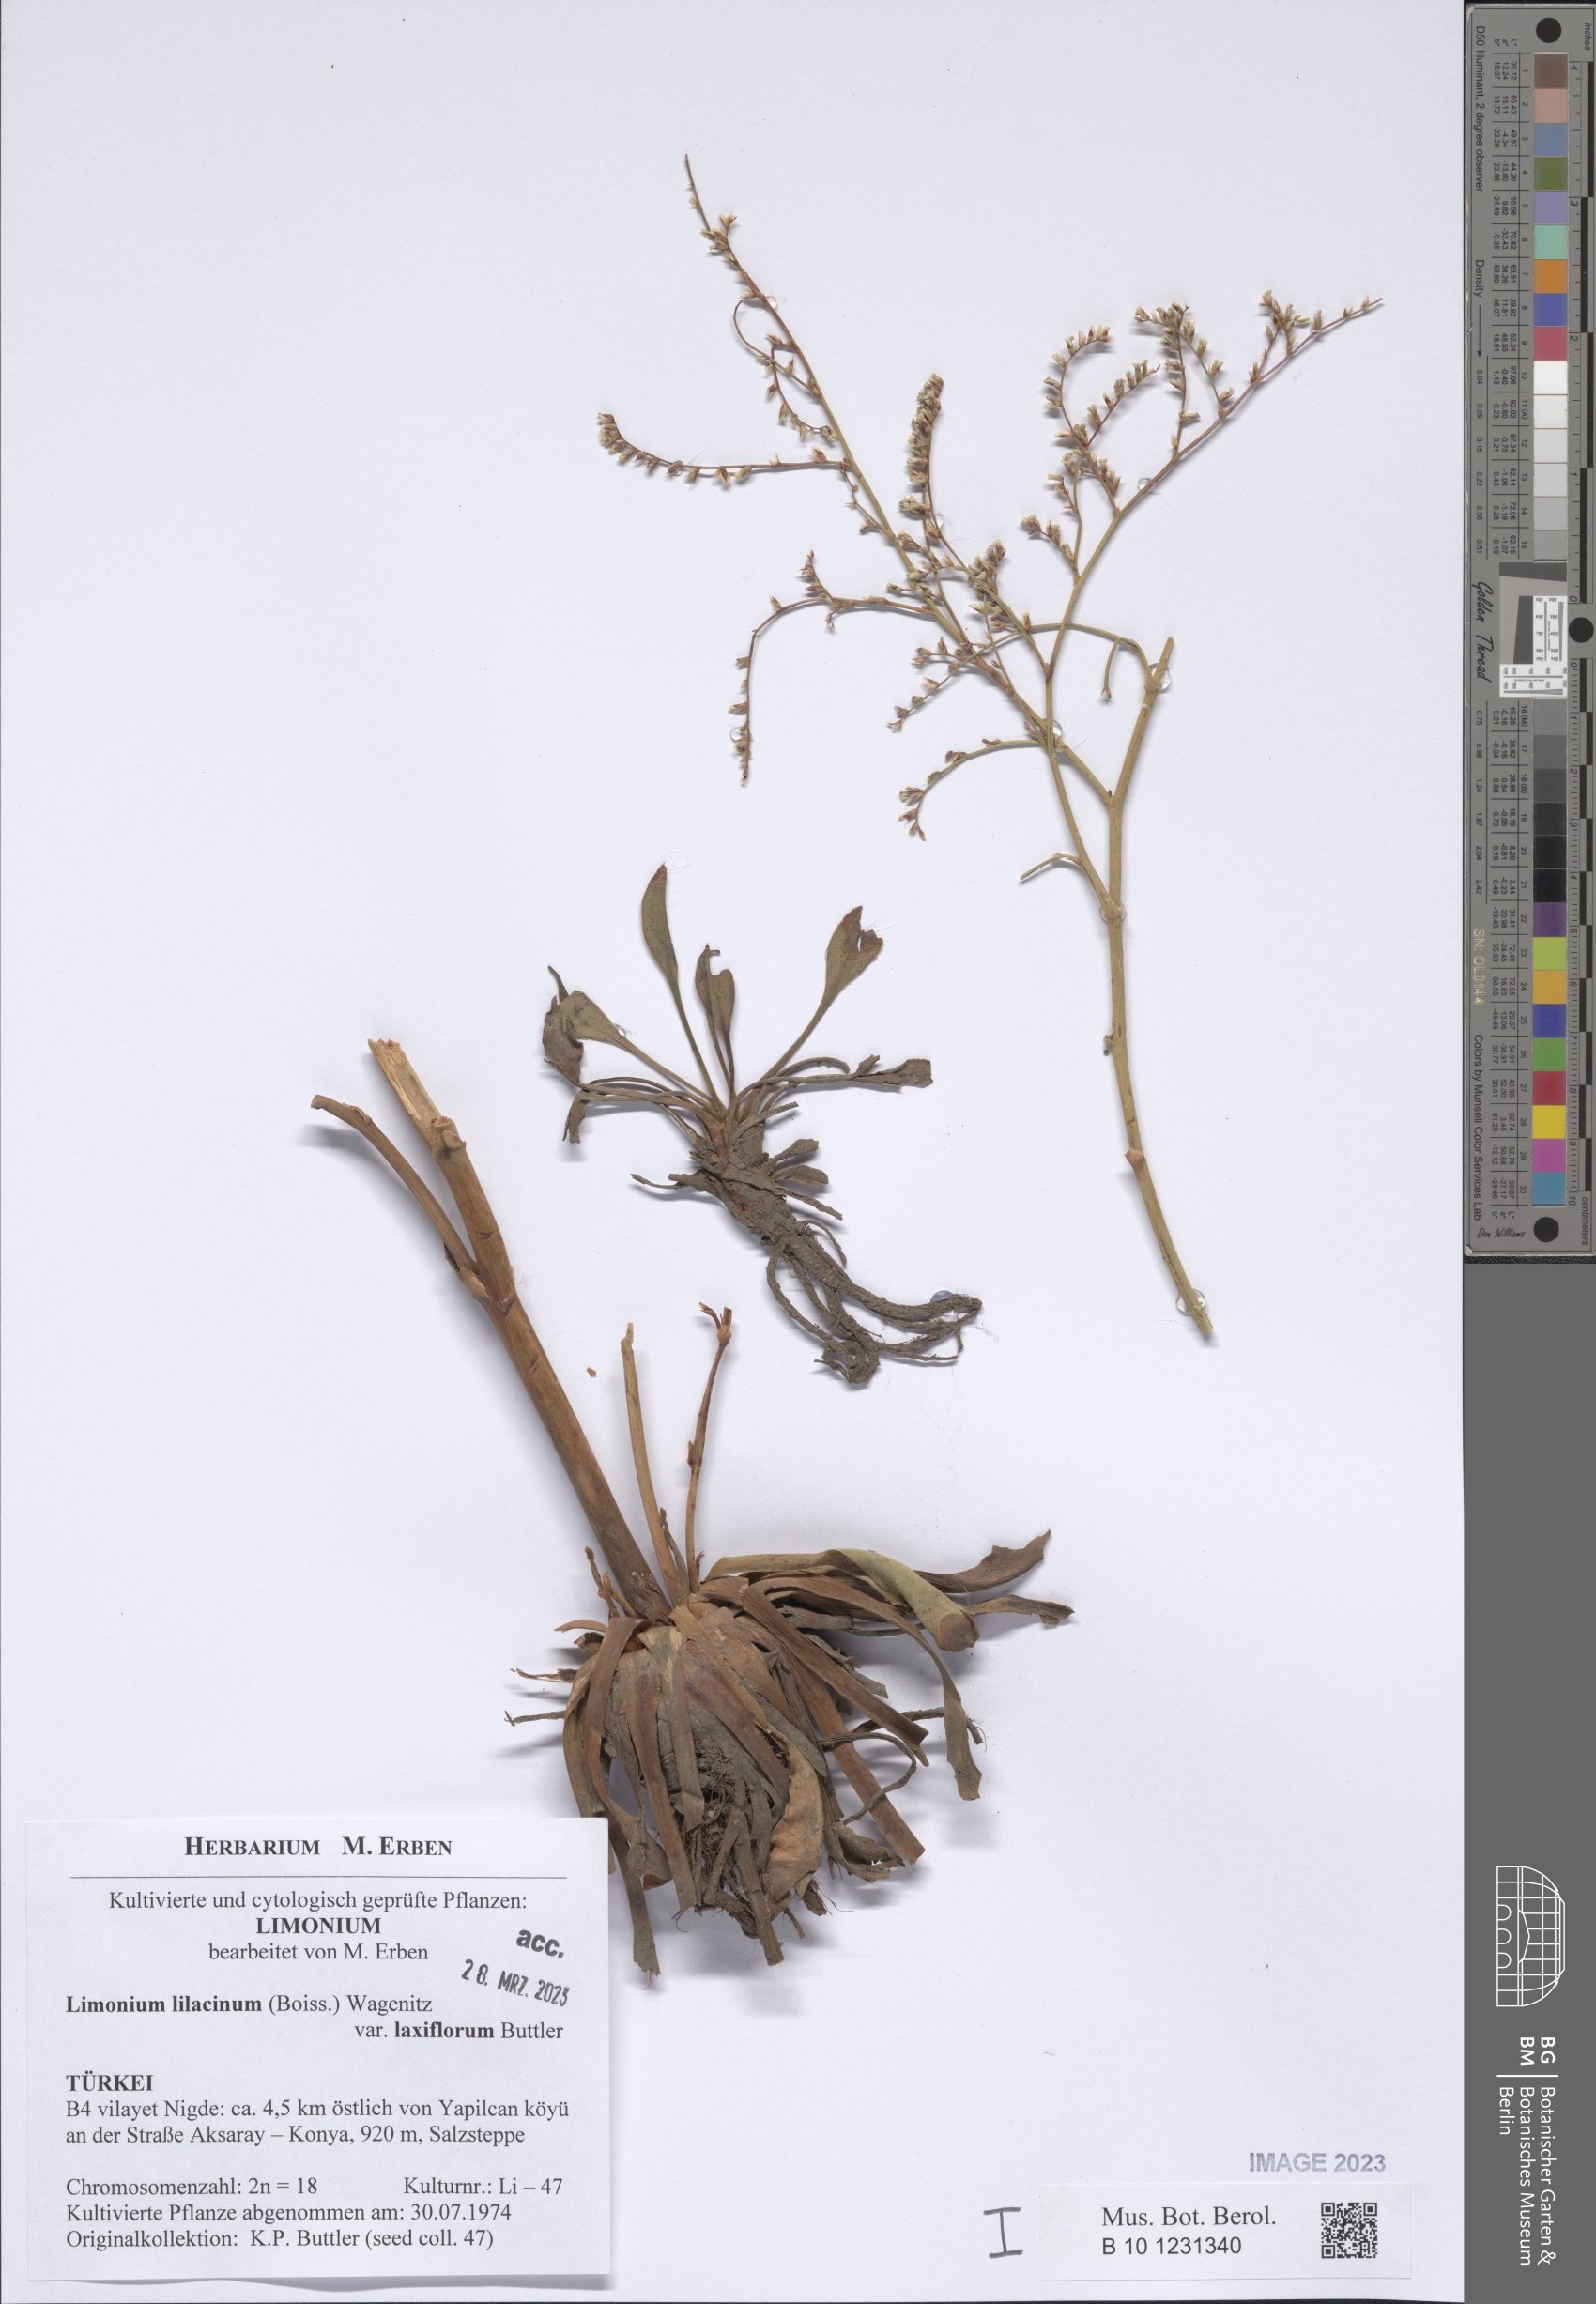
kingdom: Plantae
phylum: Tracheophyta
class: Magnoliopsida
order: Caryophyllales
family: Plumbaginaceae
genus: Limonium
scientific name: Limonium lilacinum
